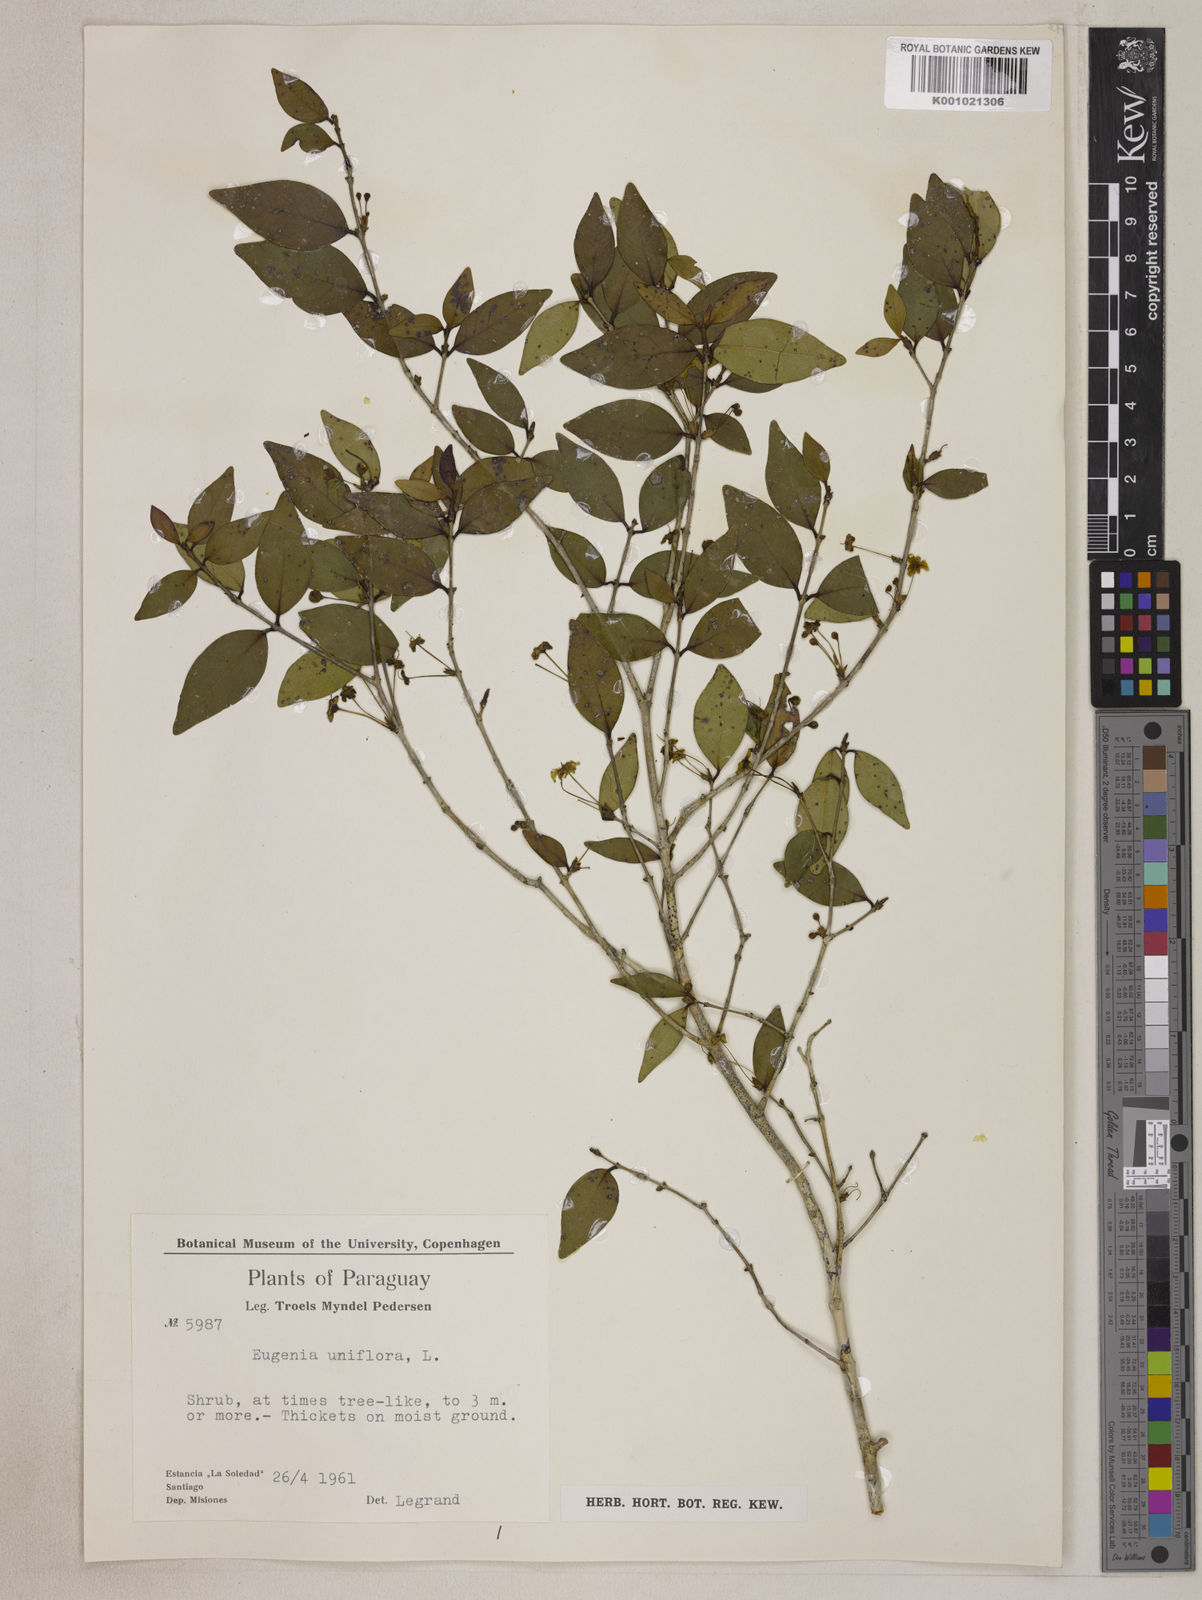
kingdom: Plantae
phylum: Tracheophyta
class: Magnoliopsida
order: Myrtales
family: Myrtaceae
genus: Eugenia
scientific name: Eugenia uniflora
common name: Surinam cherry
